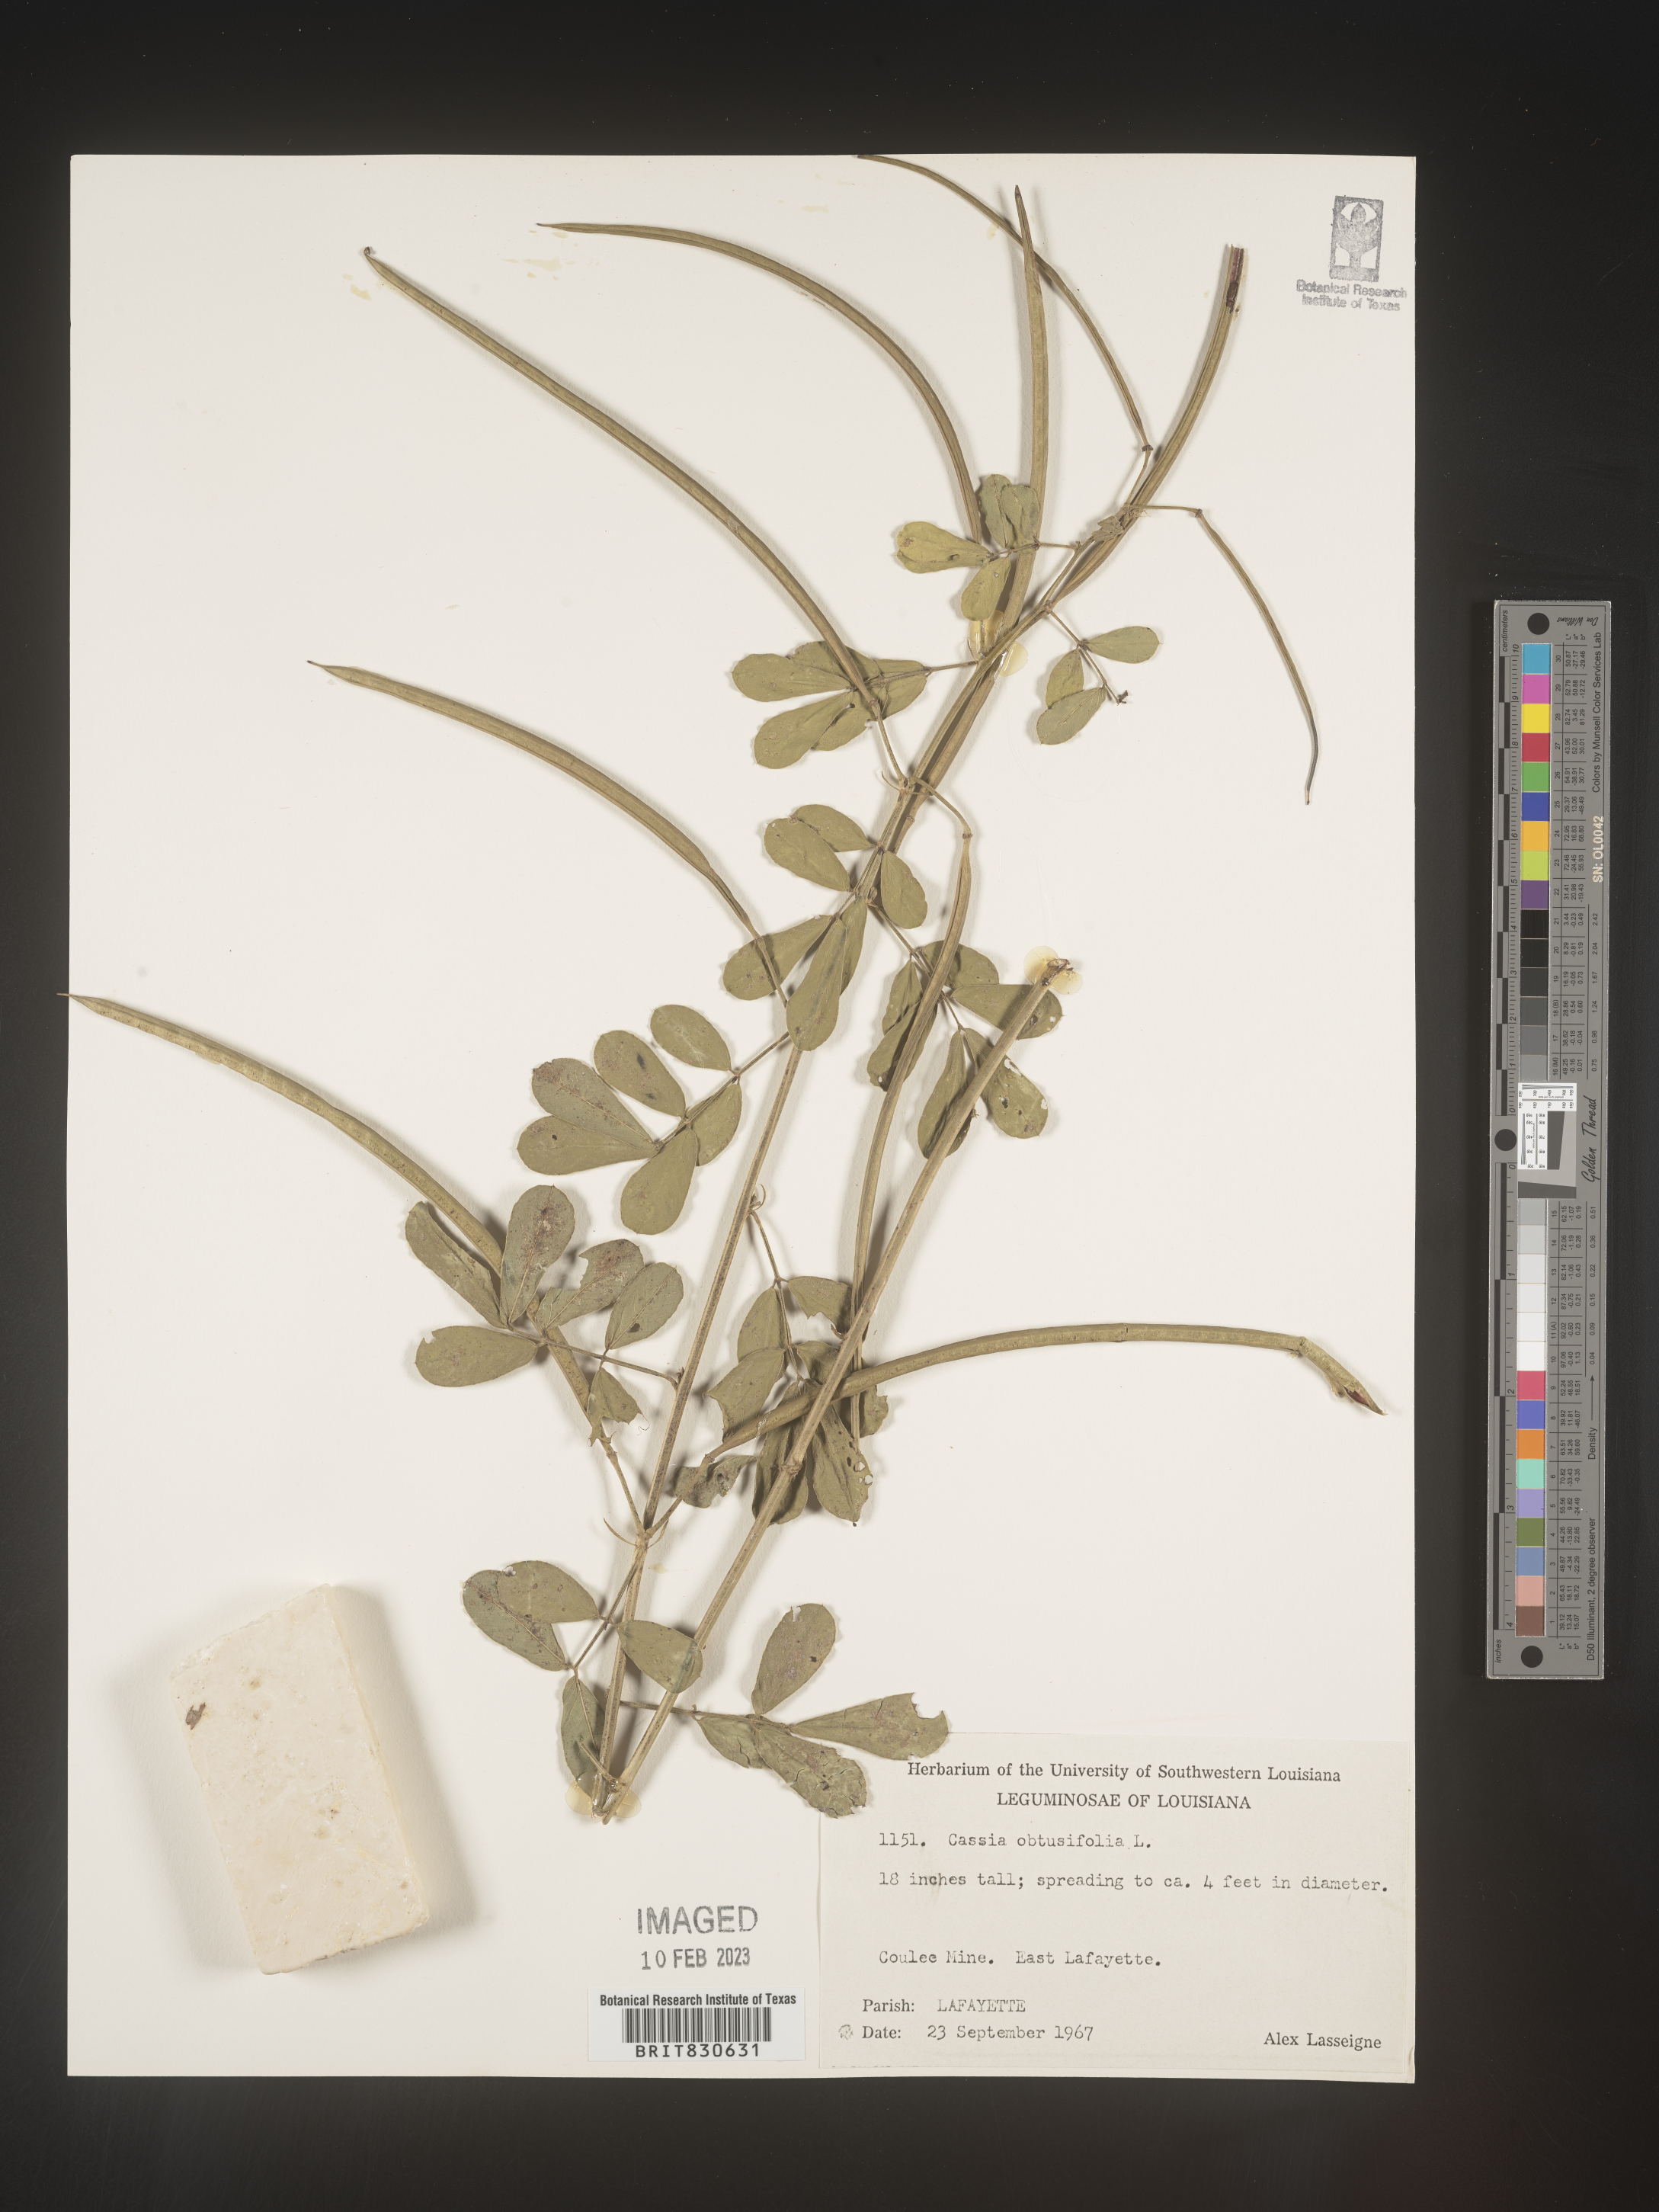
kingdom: Plantae
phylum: Tracheophyta
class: Magnoliopsida
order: Fabales
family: Fabaceae
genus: Senna
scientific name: Senna obtusifolia
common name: Java-bean
